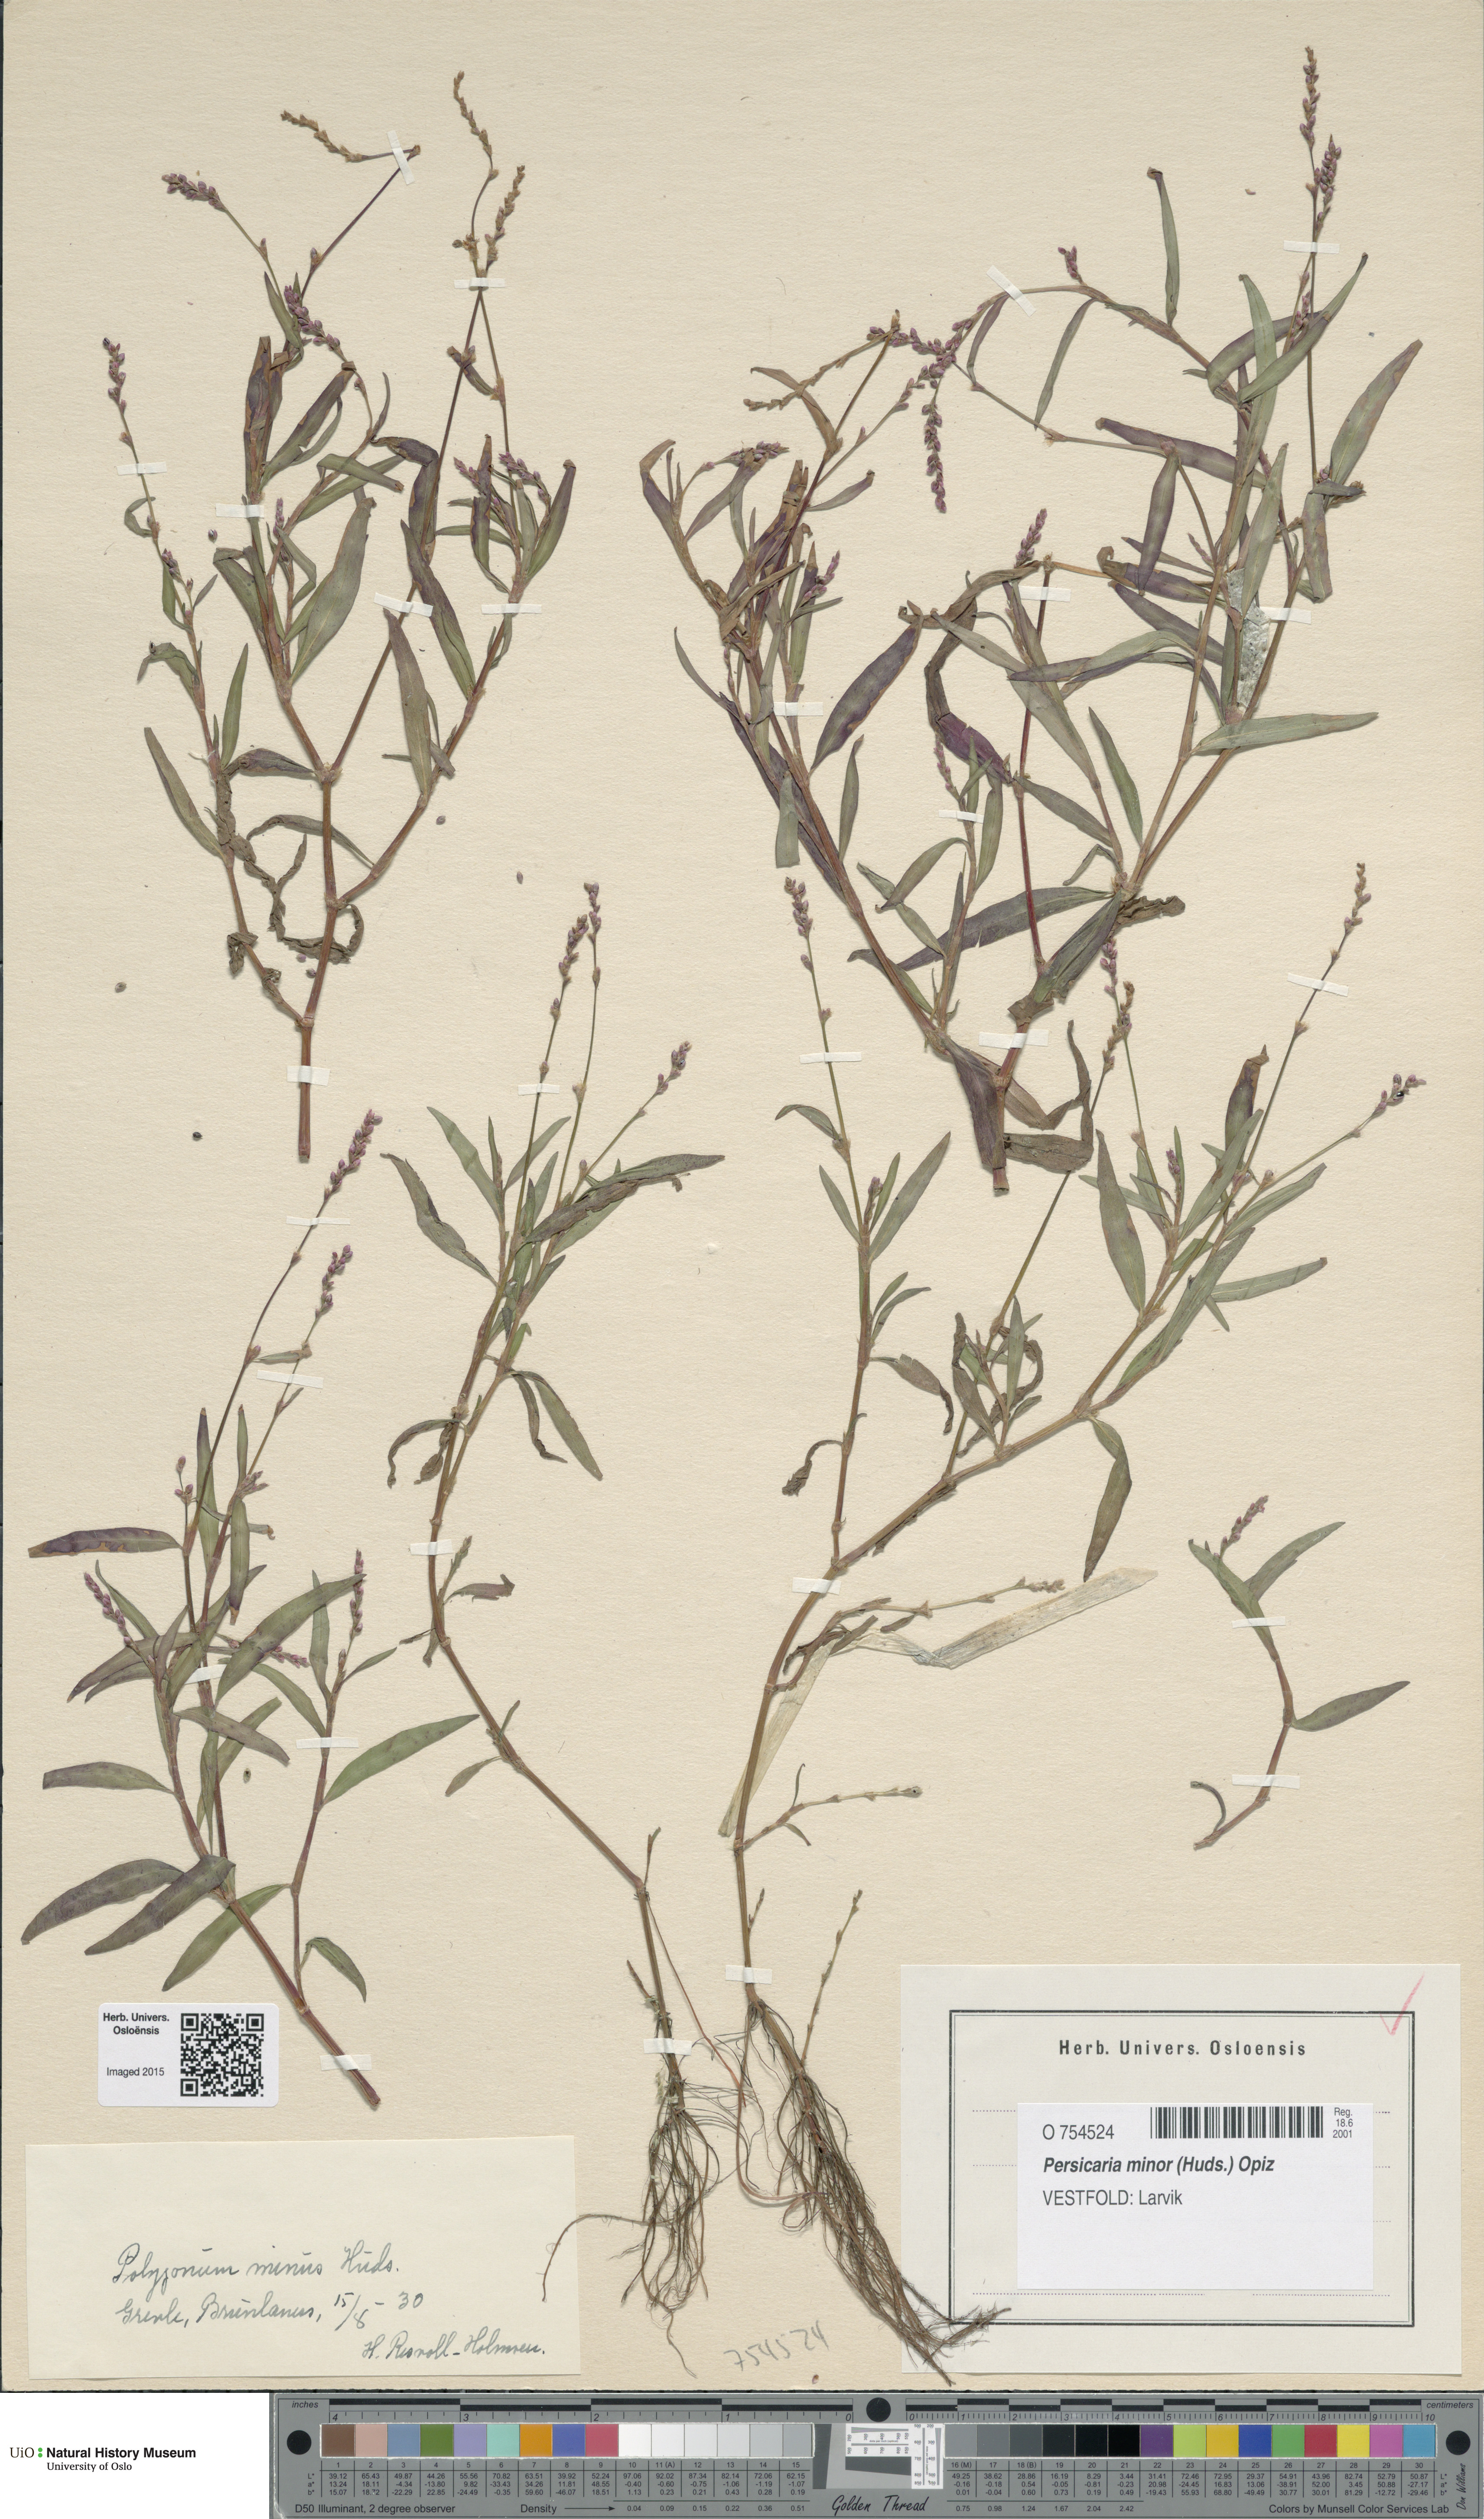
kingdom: Plantae
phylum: Tracheophyta
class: Magnoliopsida
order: Caryophyllales
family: Polygonaceae
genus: Persicaria
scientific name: Persicaria minor
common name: Small water-pepper
